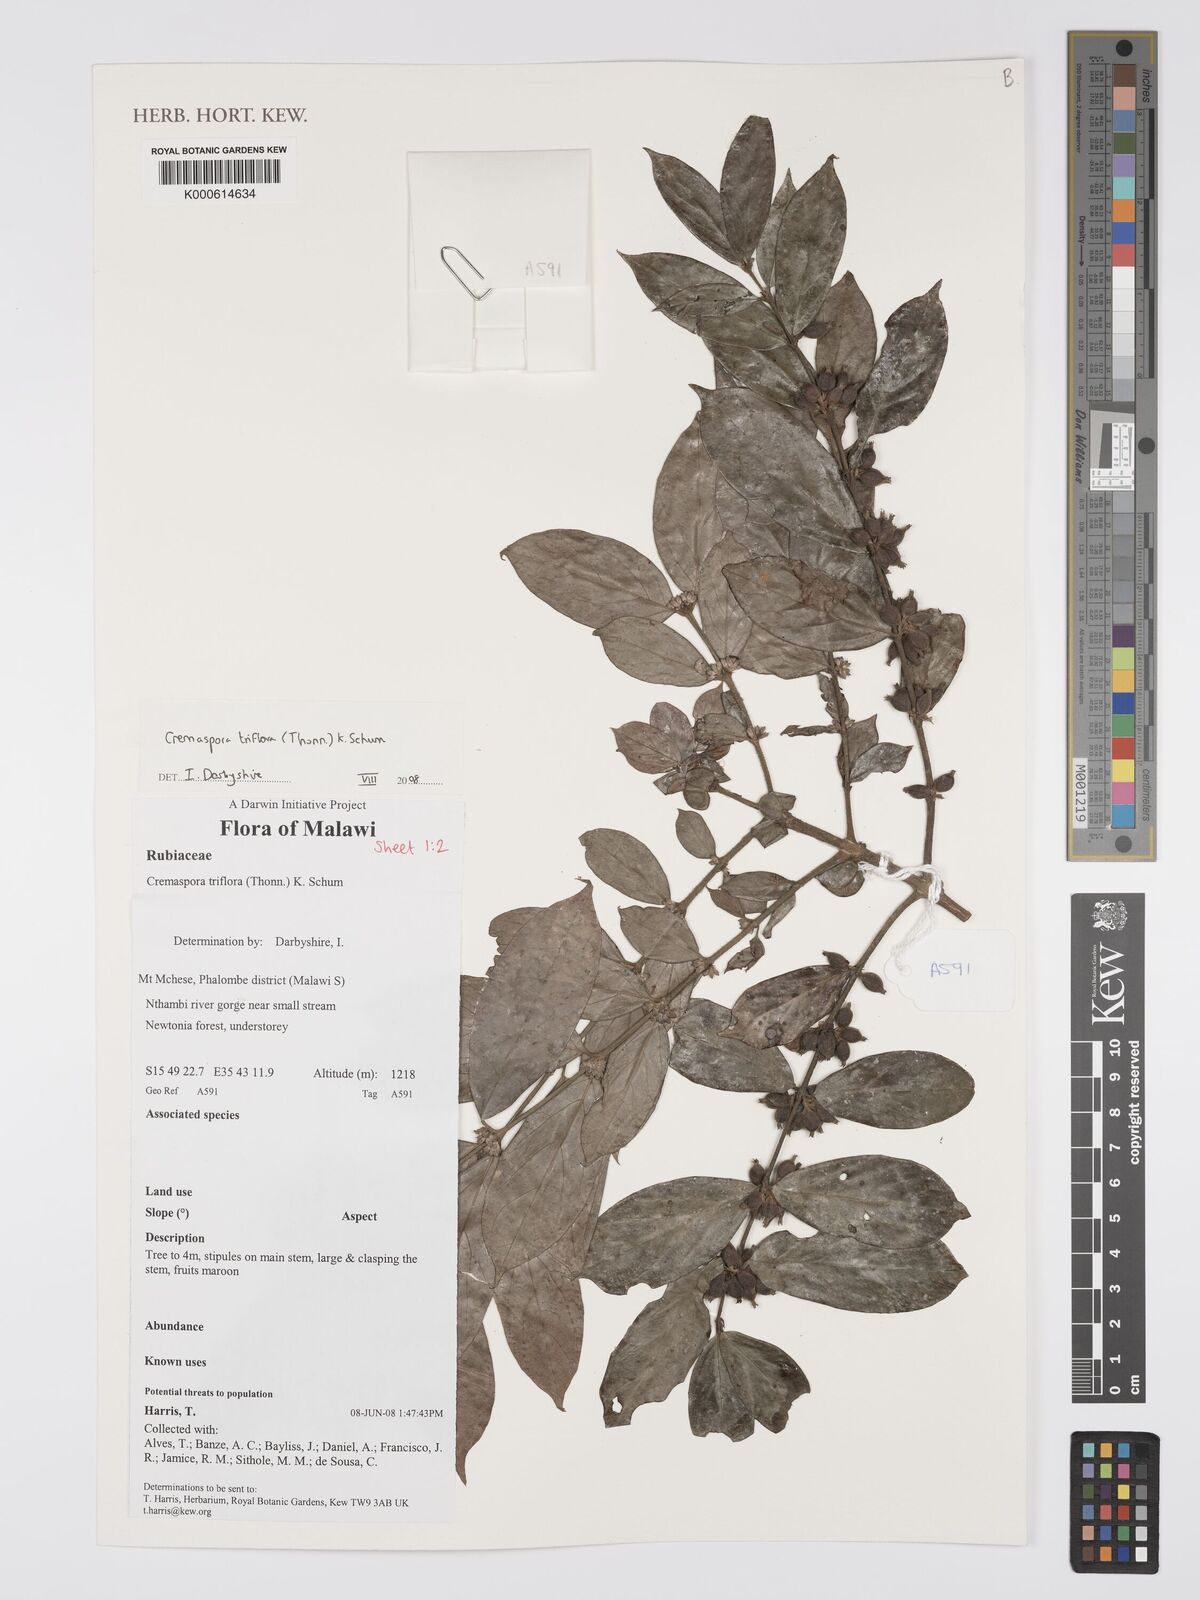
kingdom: Plantae
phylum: Tracheophyta
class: Magnoliopsida
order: Gentianales
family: Rubiaceae
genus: Cremaspora
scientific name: Cremaspora triflora
